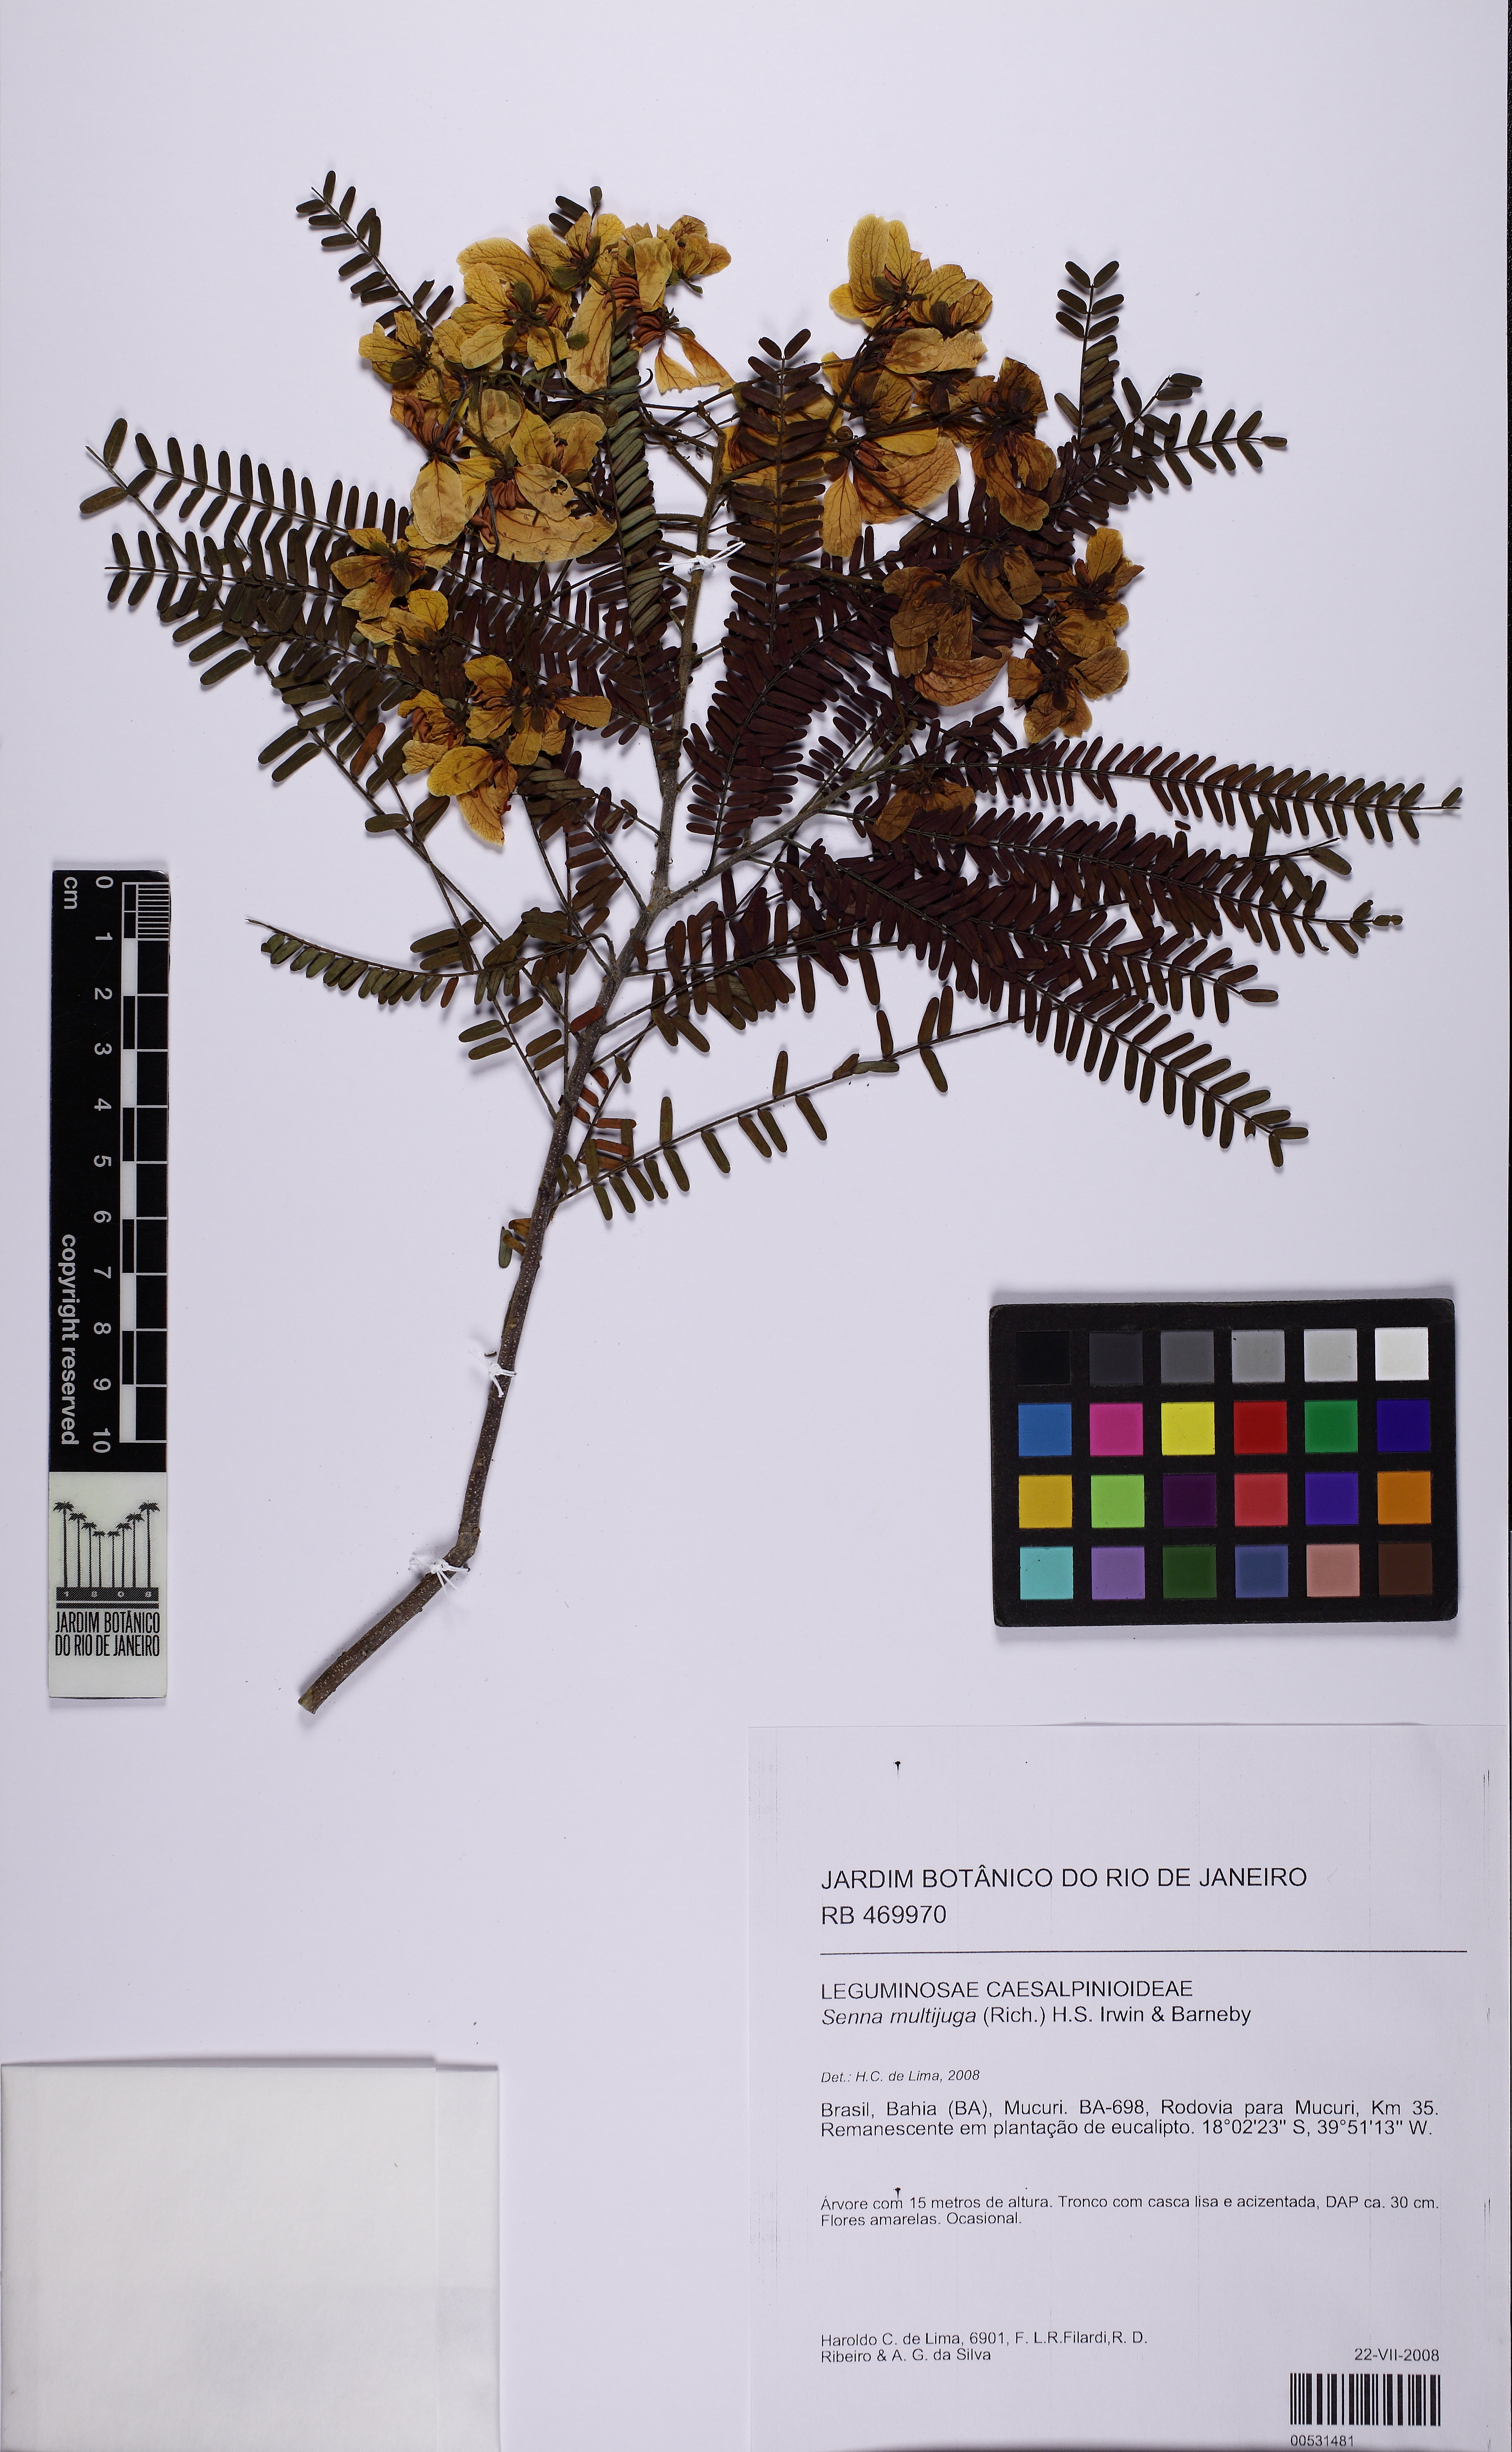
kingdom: Plantae
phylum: Tracheophyta
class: Magnoliopsida
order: Fabales
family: Fabaceae
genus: Senna
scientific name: Senna multijuga
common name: False sicklepod
